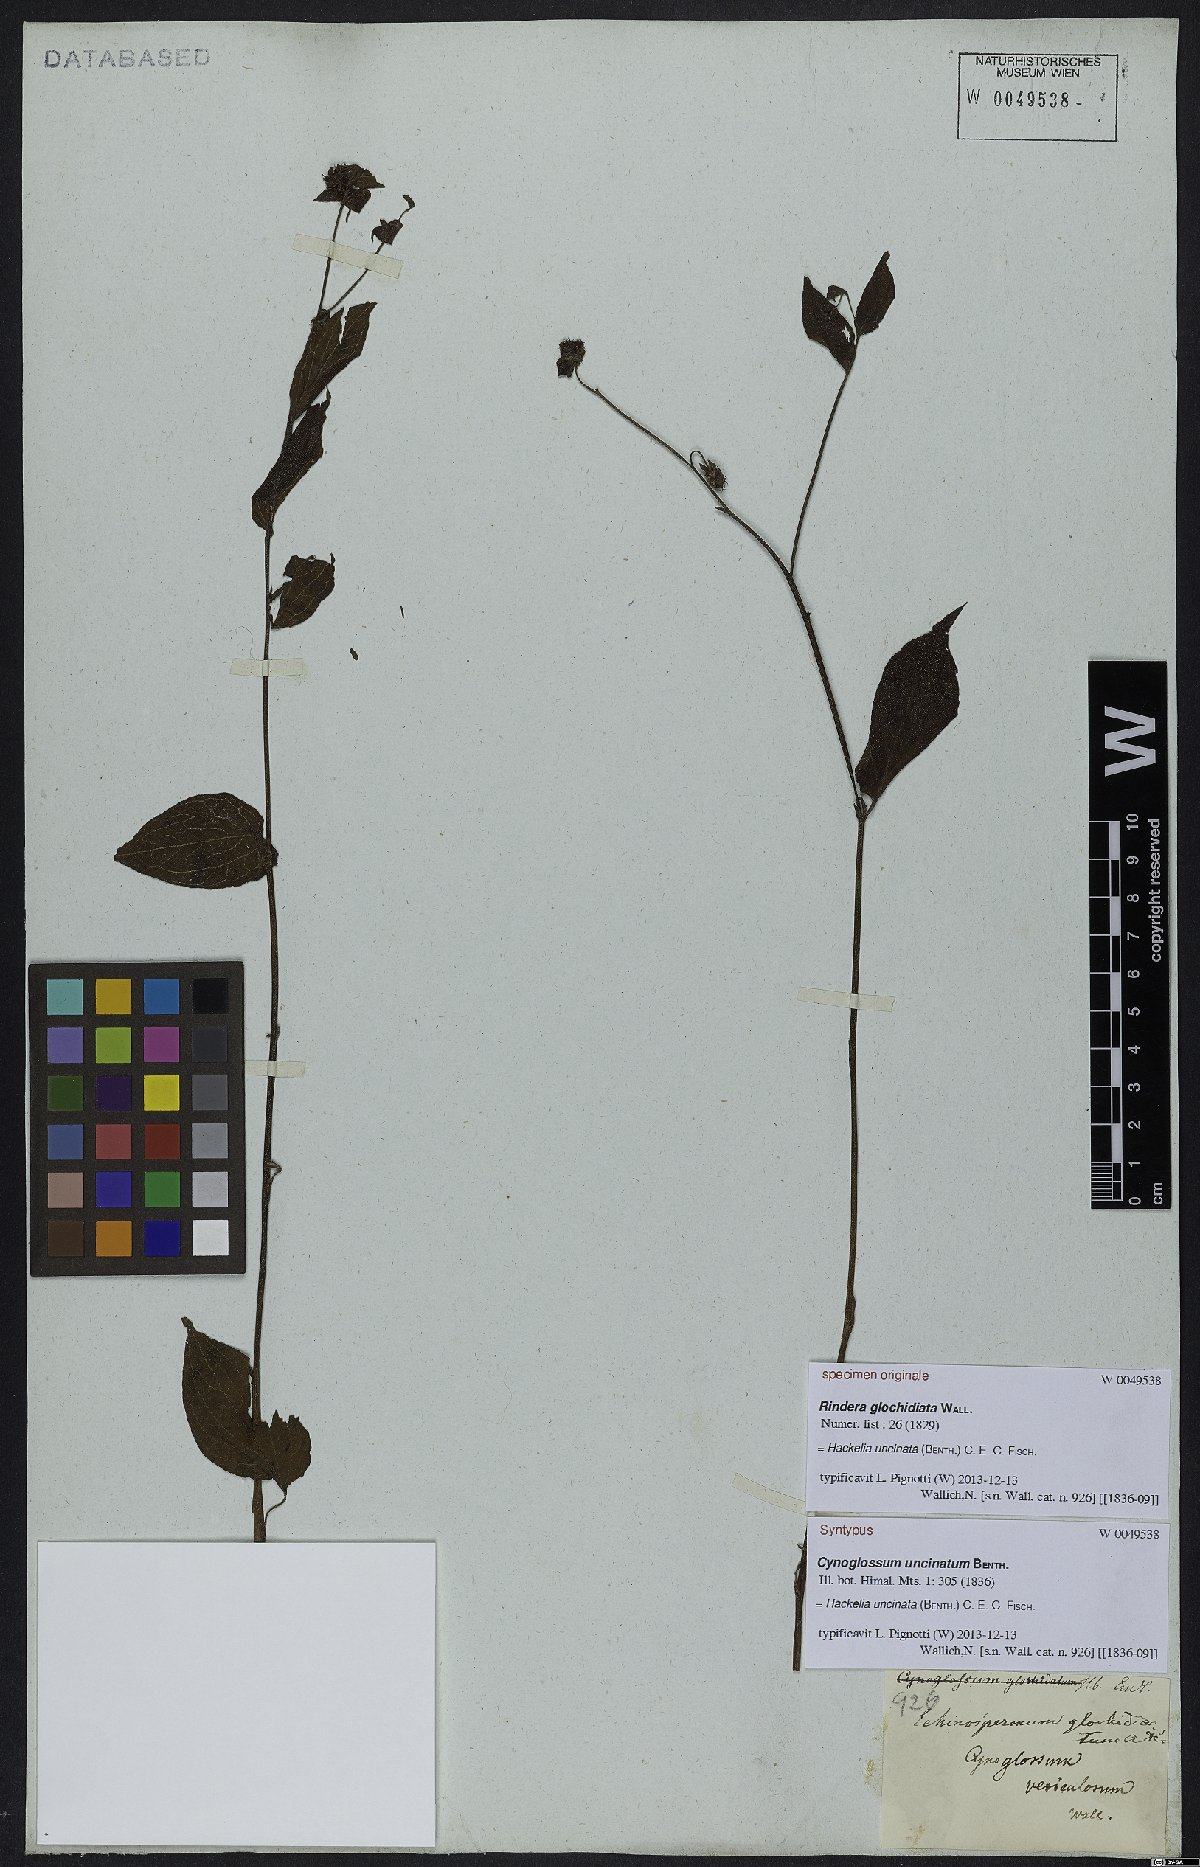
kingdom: Plantae
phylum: Tracheophyta
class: Magnoliopsida
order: Boraginales
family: Boraginaceae
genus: Hackelia
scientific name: Hackelia uncinata
